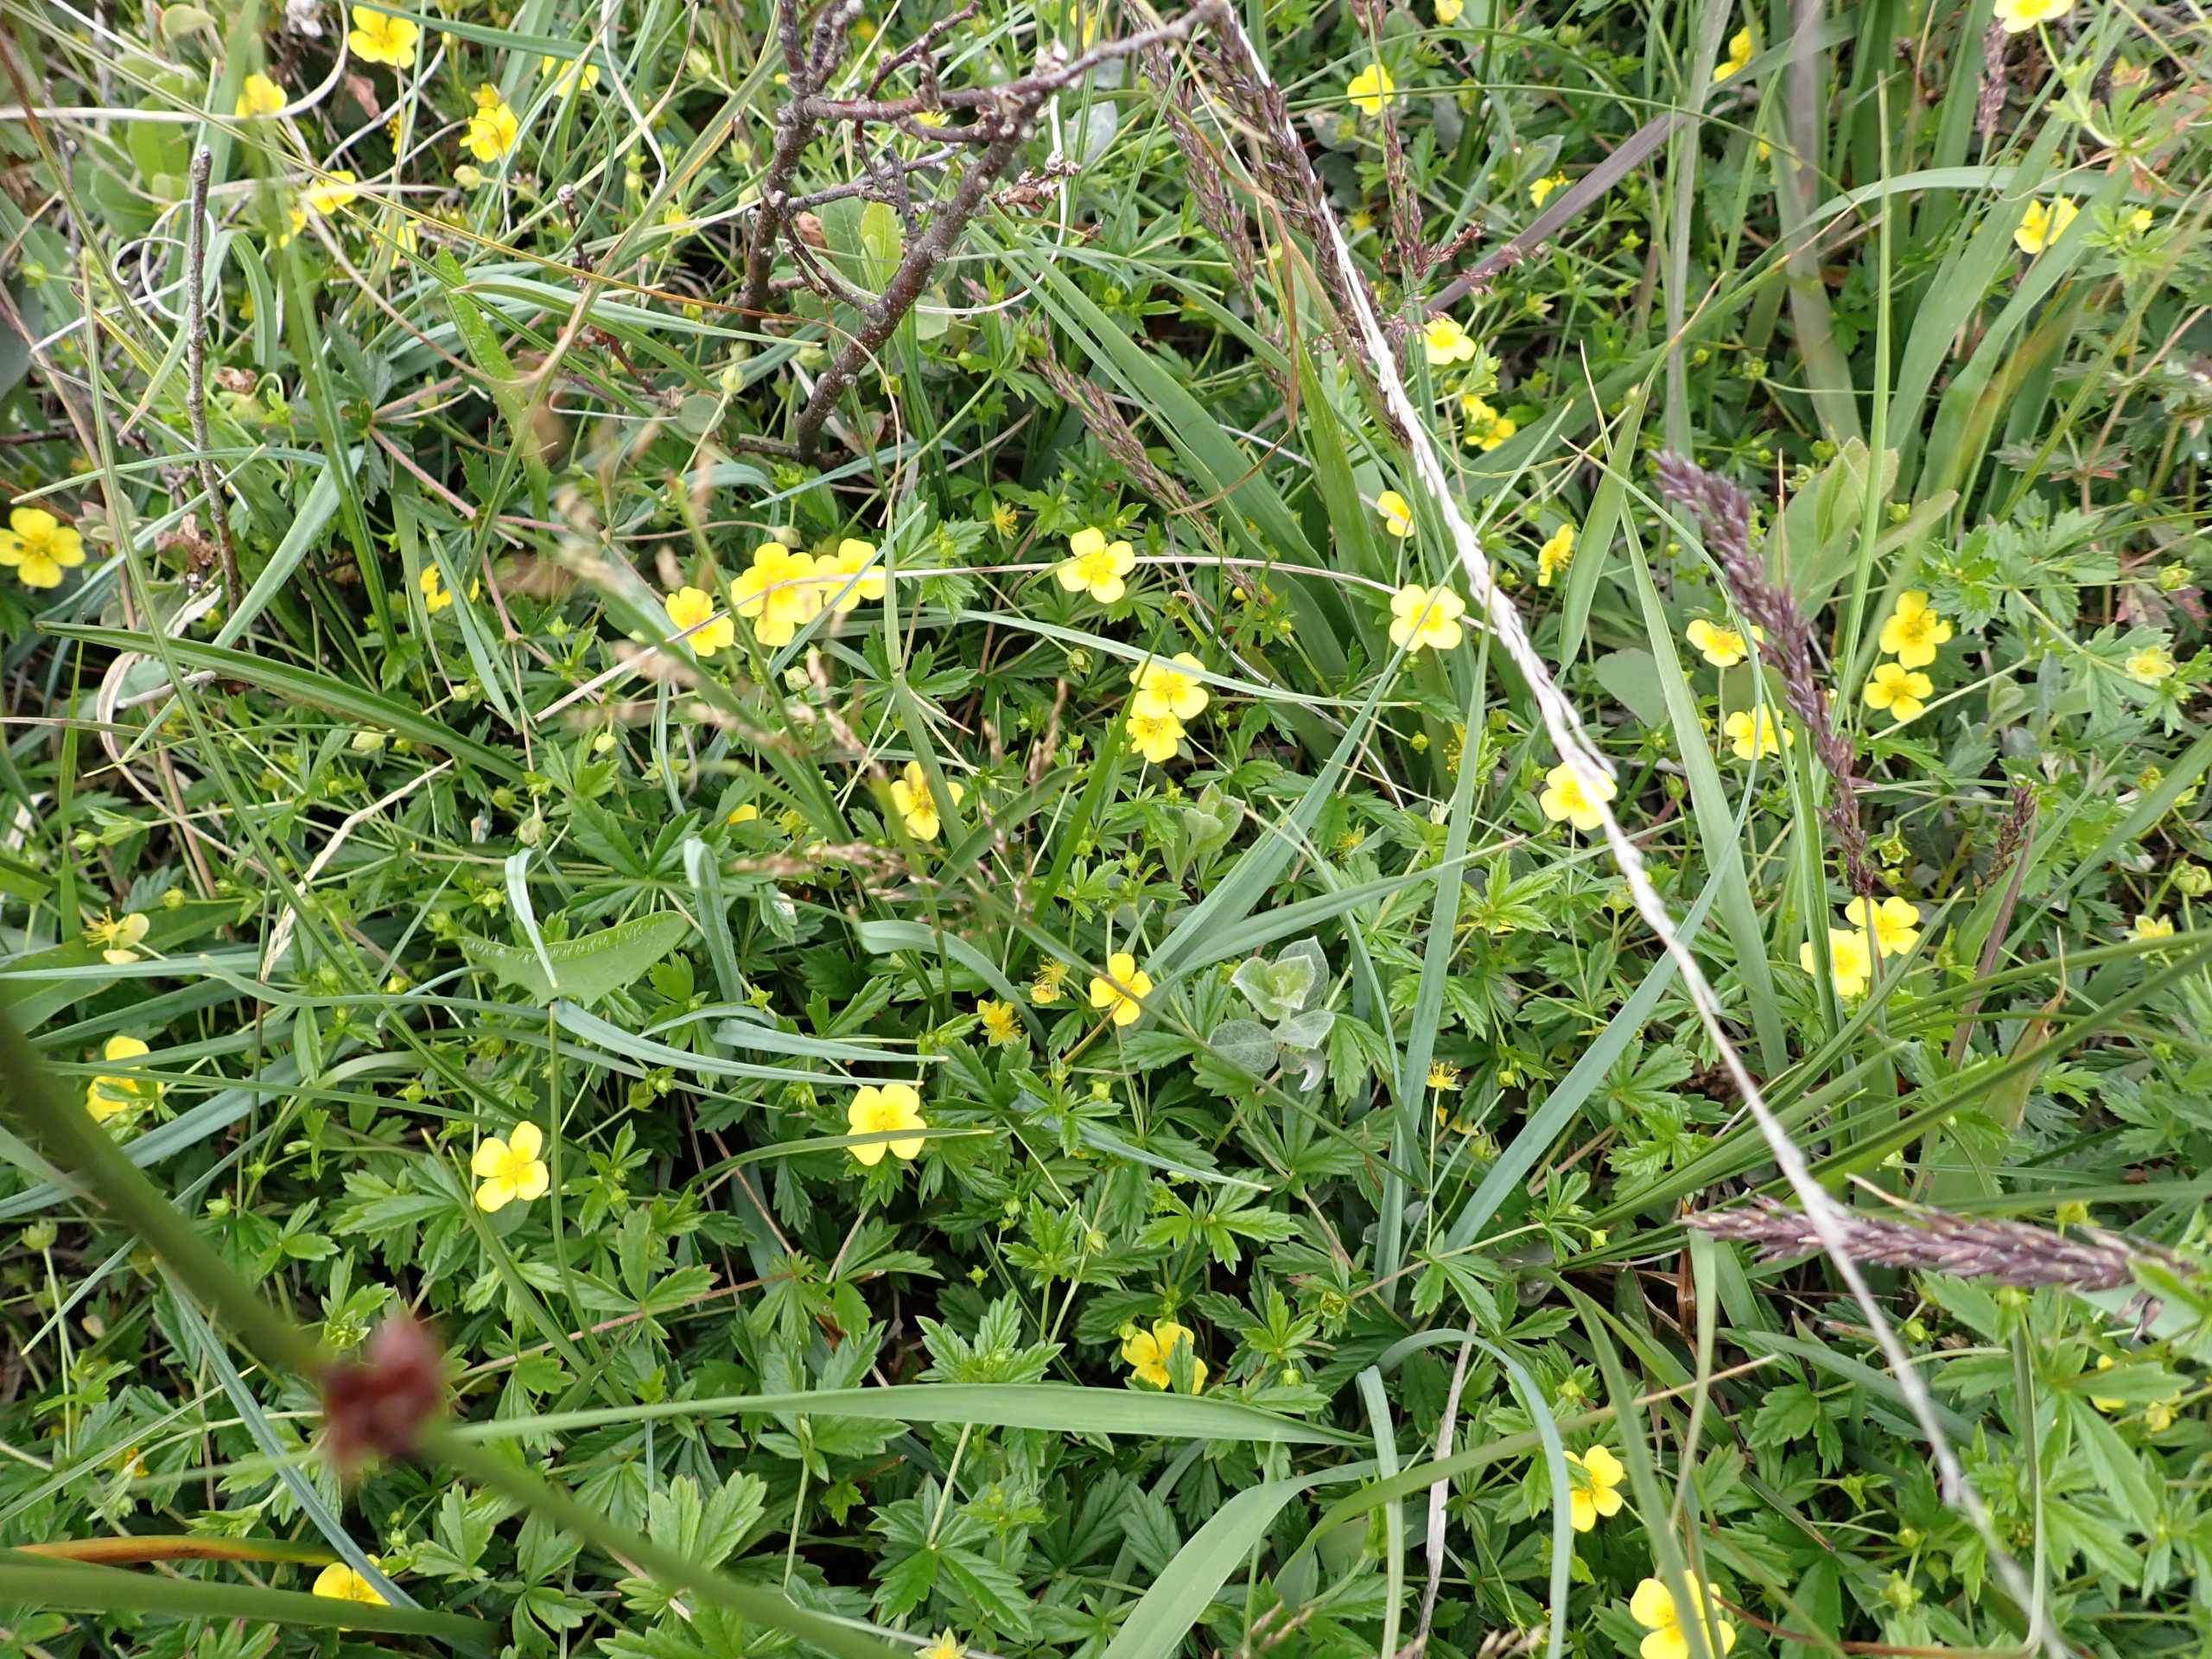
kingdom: Plantae
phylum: Tracheophyta
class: Magnoliopsida
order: Rosales
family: Rosaceae
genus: Potentilla
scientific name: Potentilla erecta
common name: Tormentil
